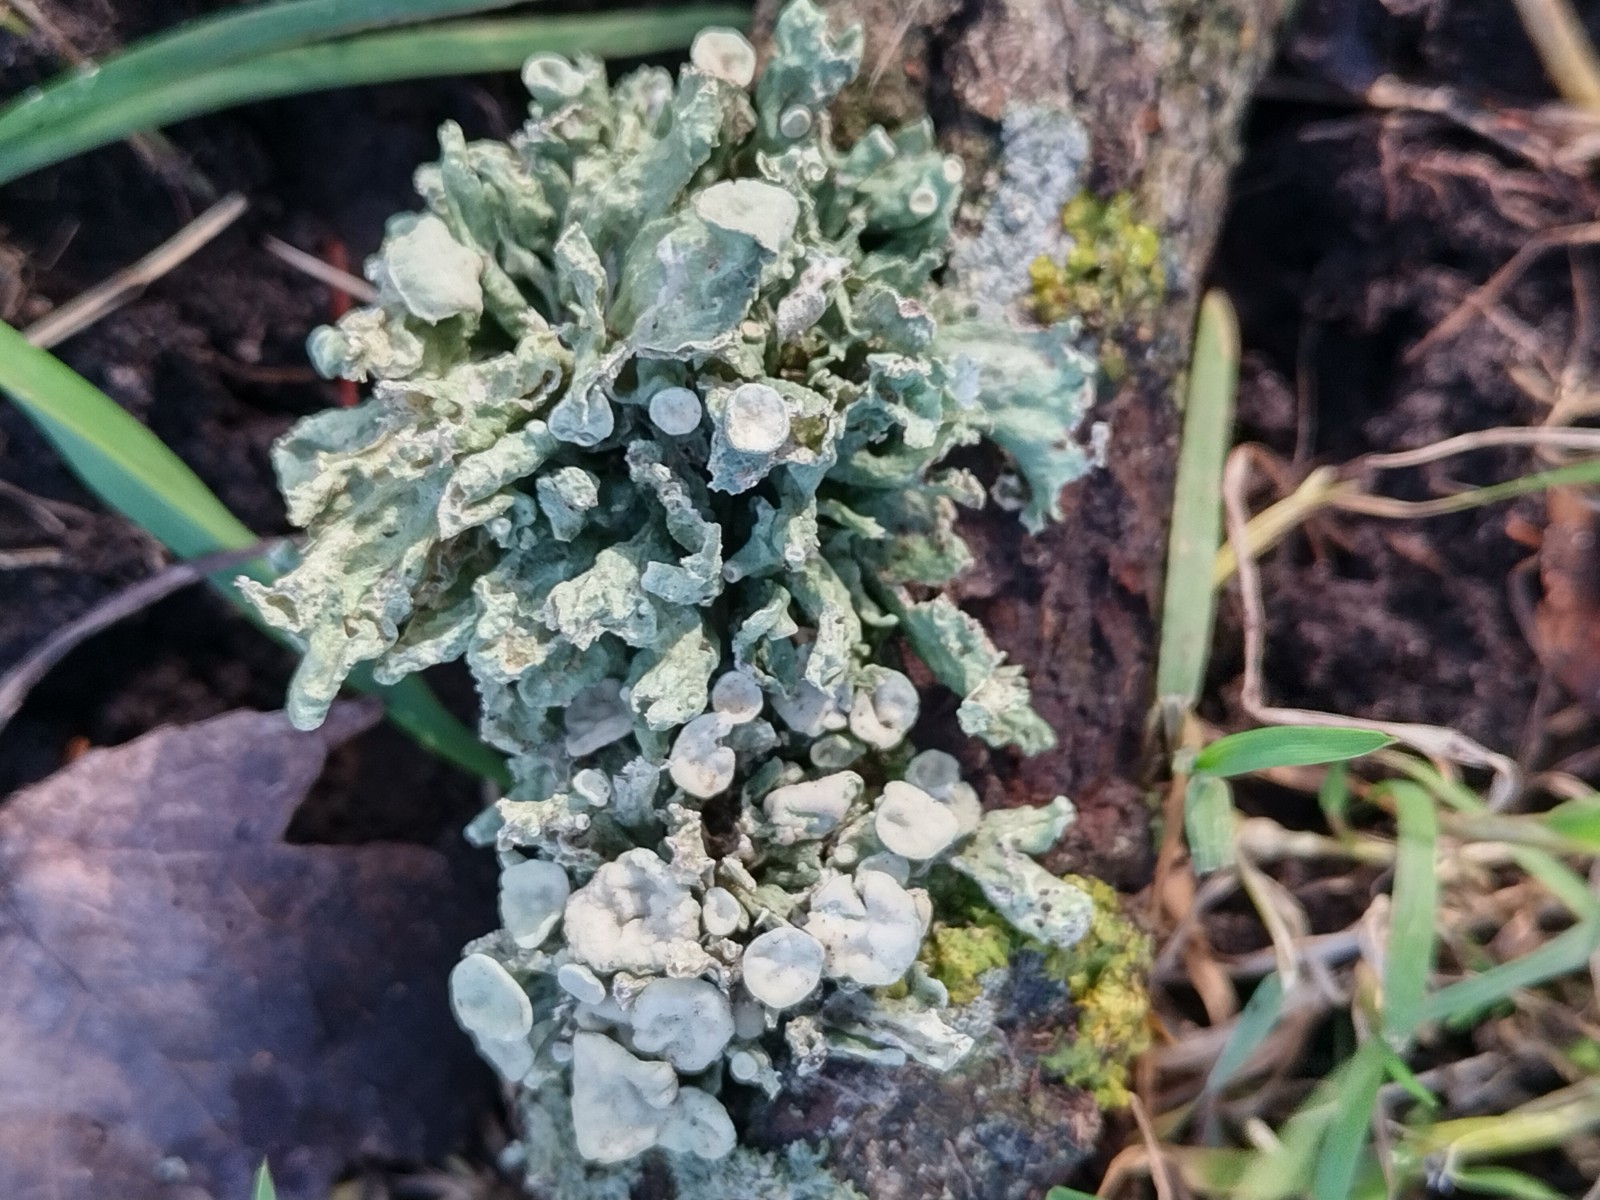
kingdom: Fungi
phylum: Ascomycota
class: Lecanoromycetes
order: Lecanorales
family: Ramalinaceae
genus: Ramalina
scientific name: Ramalina fastigiata
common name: tue-grenlav
